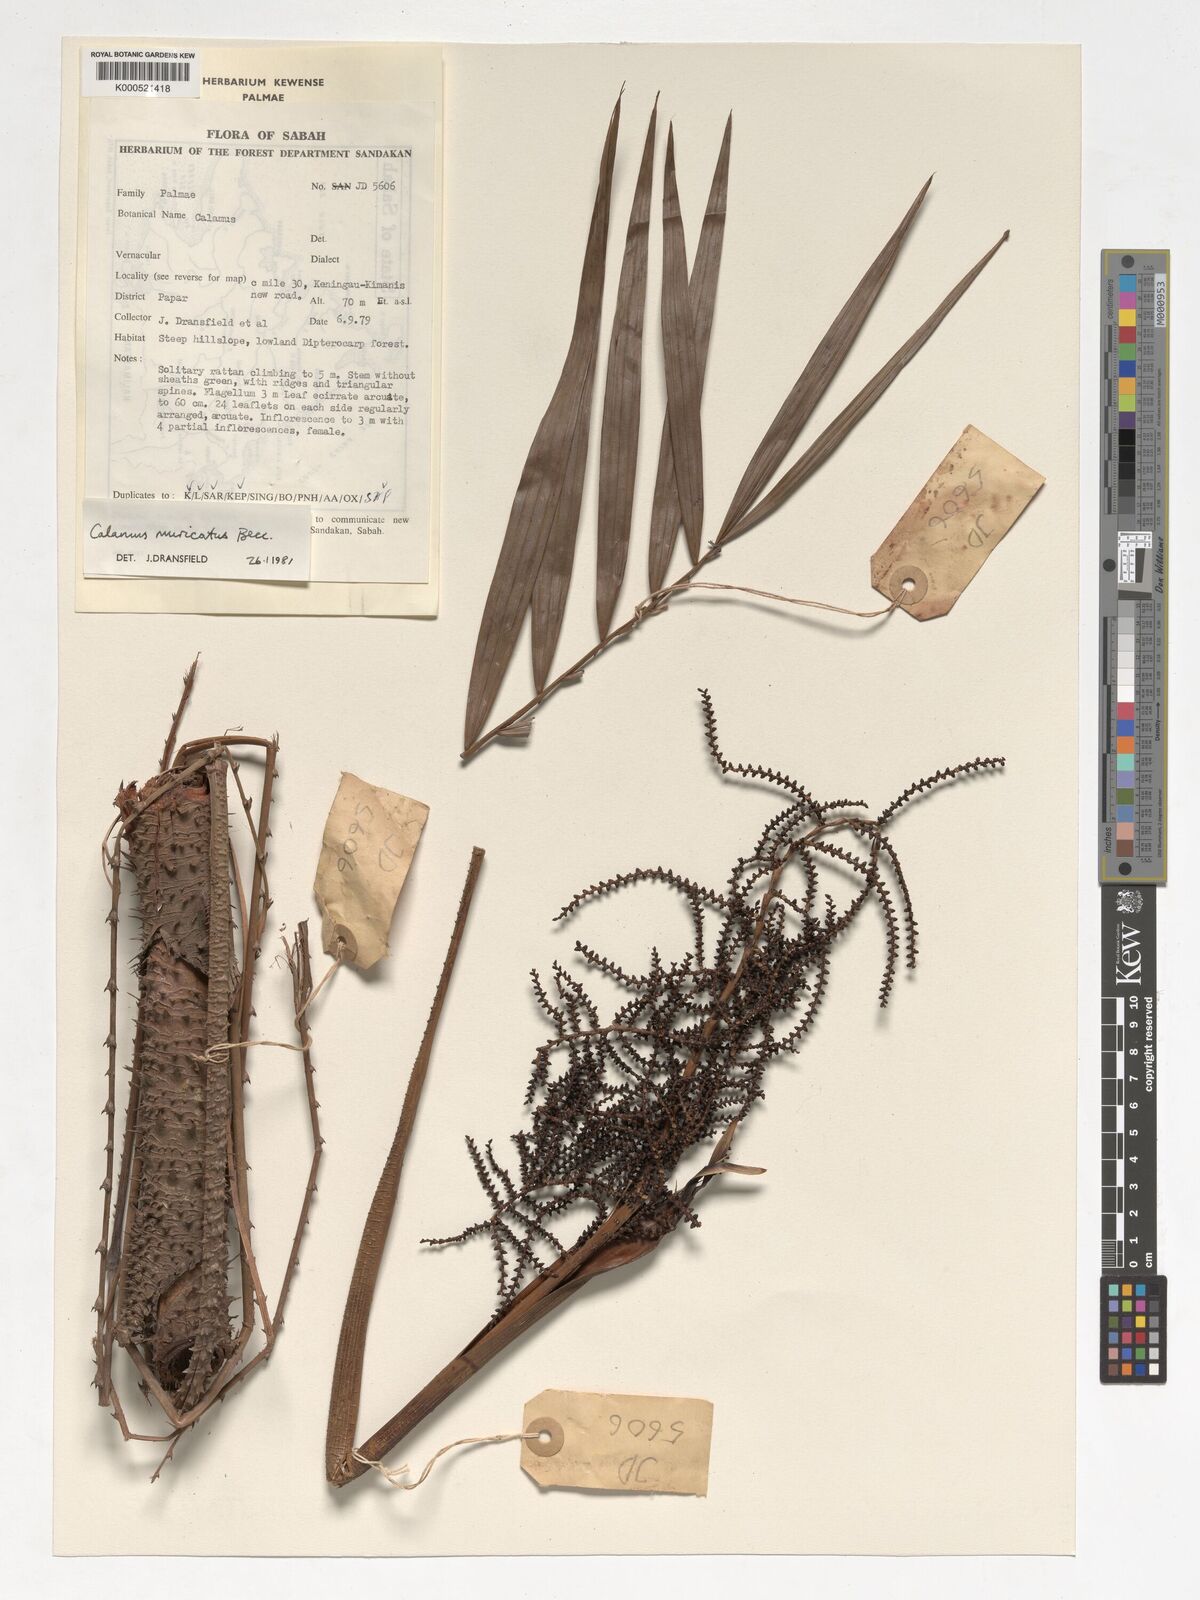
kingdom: Plantae
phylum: Tracheophyta
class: Liliopsida
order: Arecales
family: Arecaceae
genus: Calamus
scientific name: Calamus muricatus
